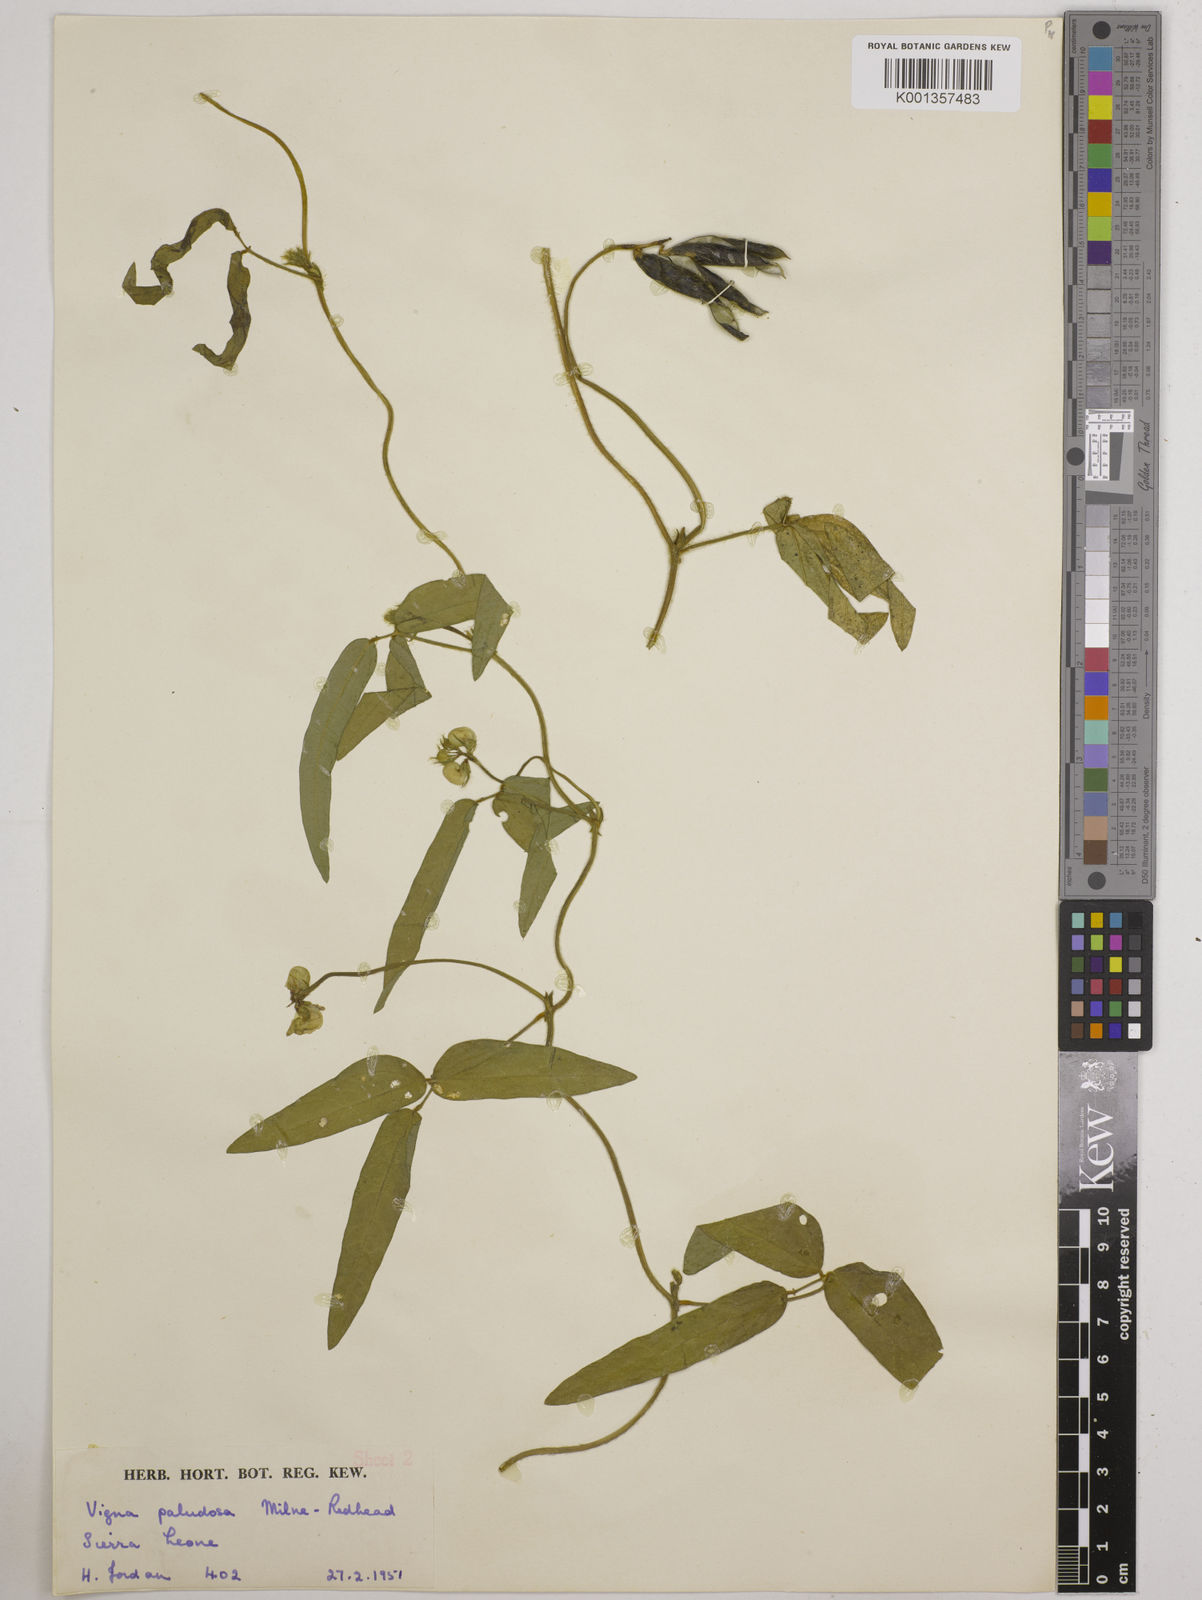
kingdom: Plantae
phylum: Tracheophyta
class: Magnoliopsida
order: Fabales
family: Fabaceae
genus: Vigna
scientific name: Vigna longifolia
